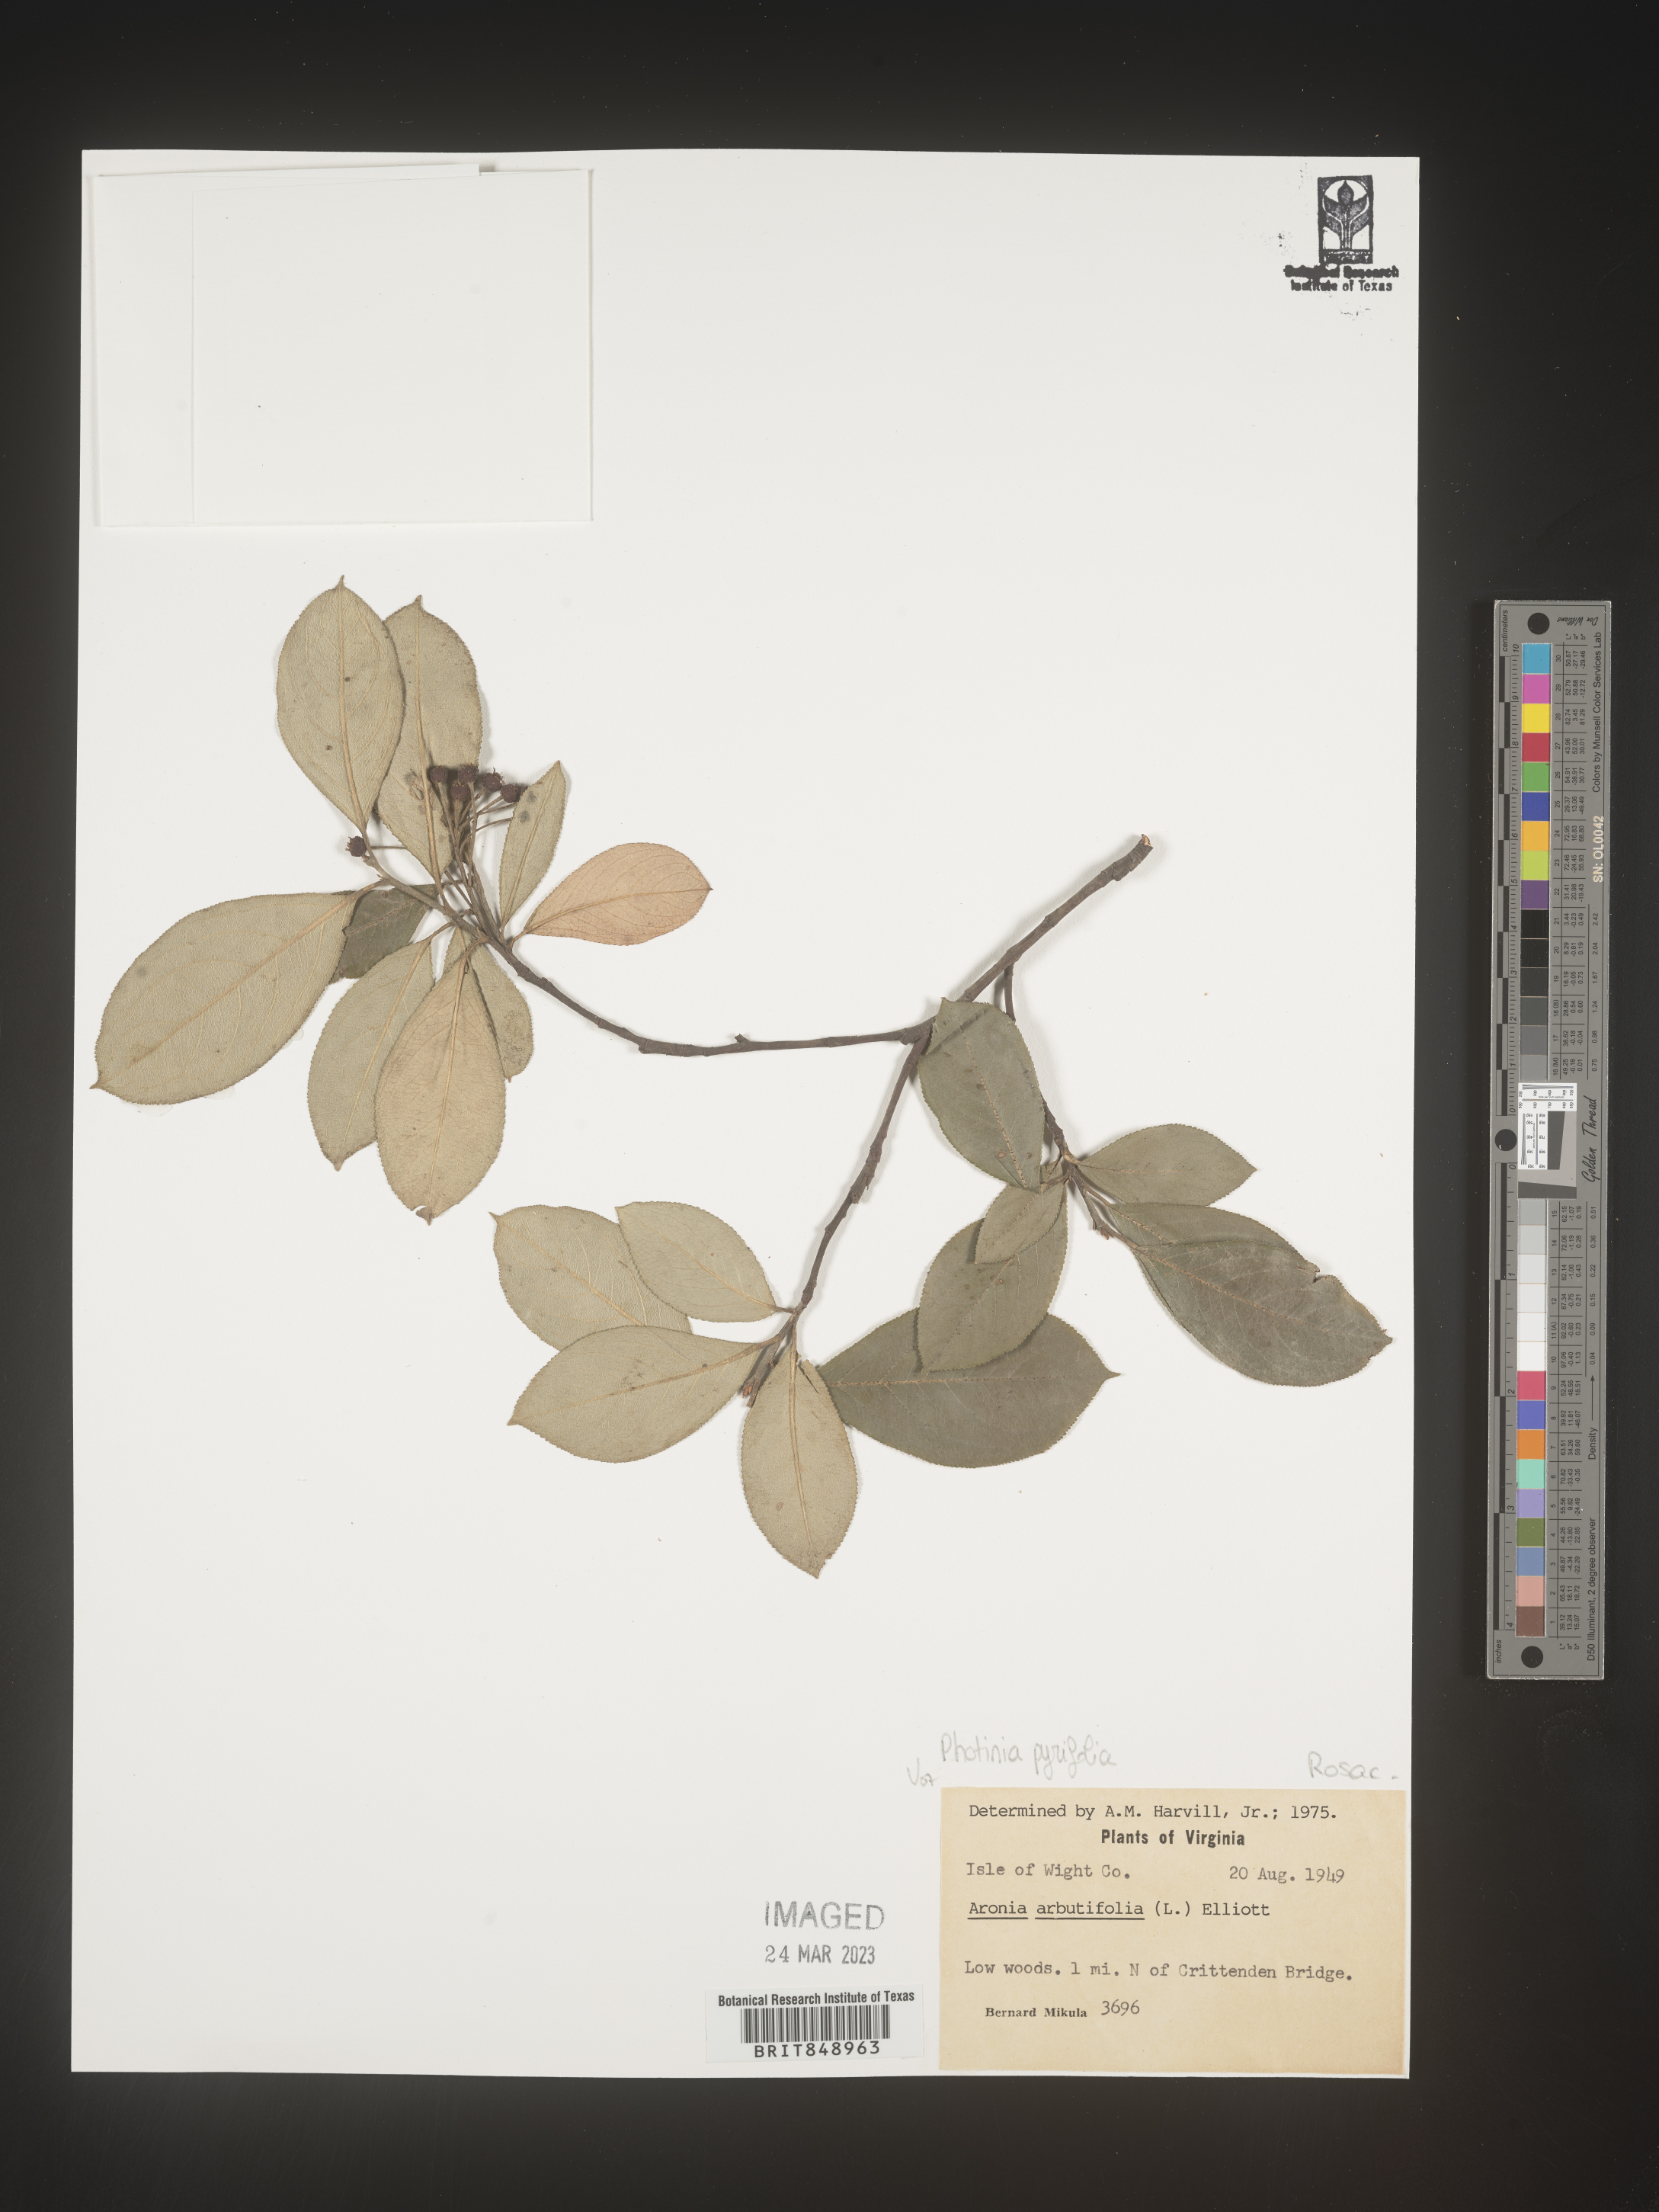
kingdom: Plantae
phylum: Tracheophyta
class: Magnoliopsida
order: Rosales
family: Rosaceae
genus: Photinia
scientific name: Photinia
